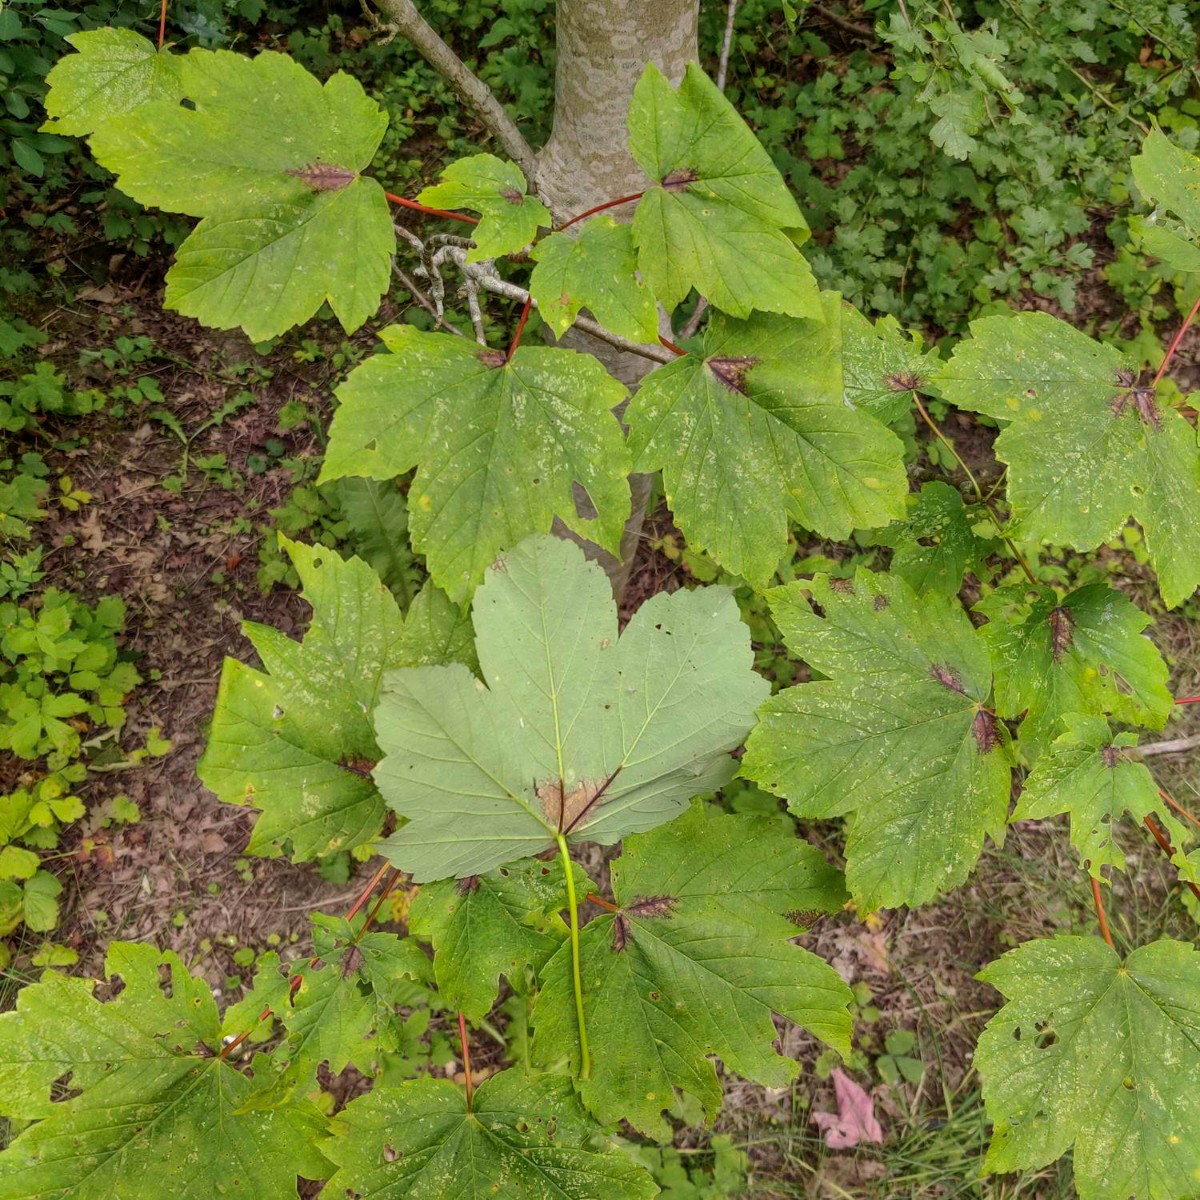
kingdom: Fungi
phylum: Ascomycota
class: Sordariomycetes
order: Diaporthales
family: Gnomoniaceae
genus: Pleuroceras
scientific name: Pleuroceras pseudoplatani
